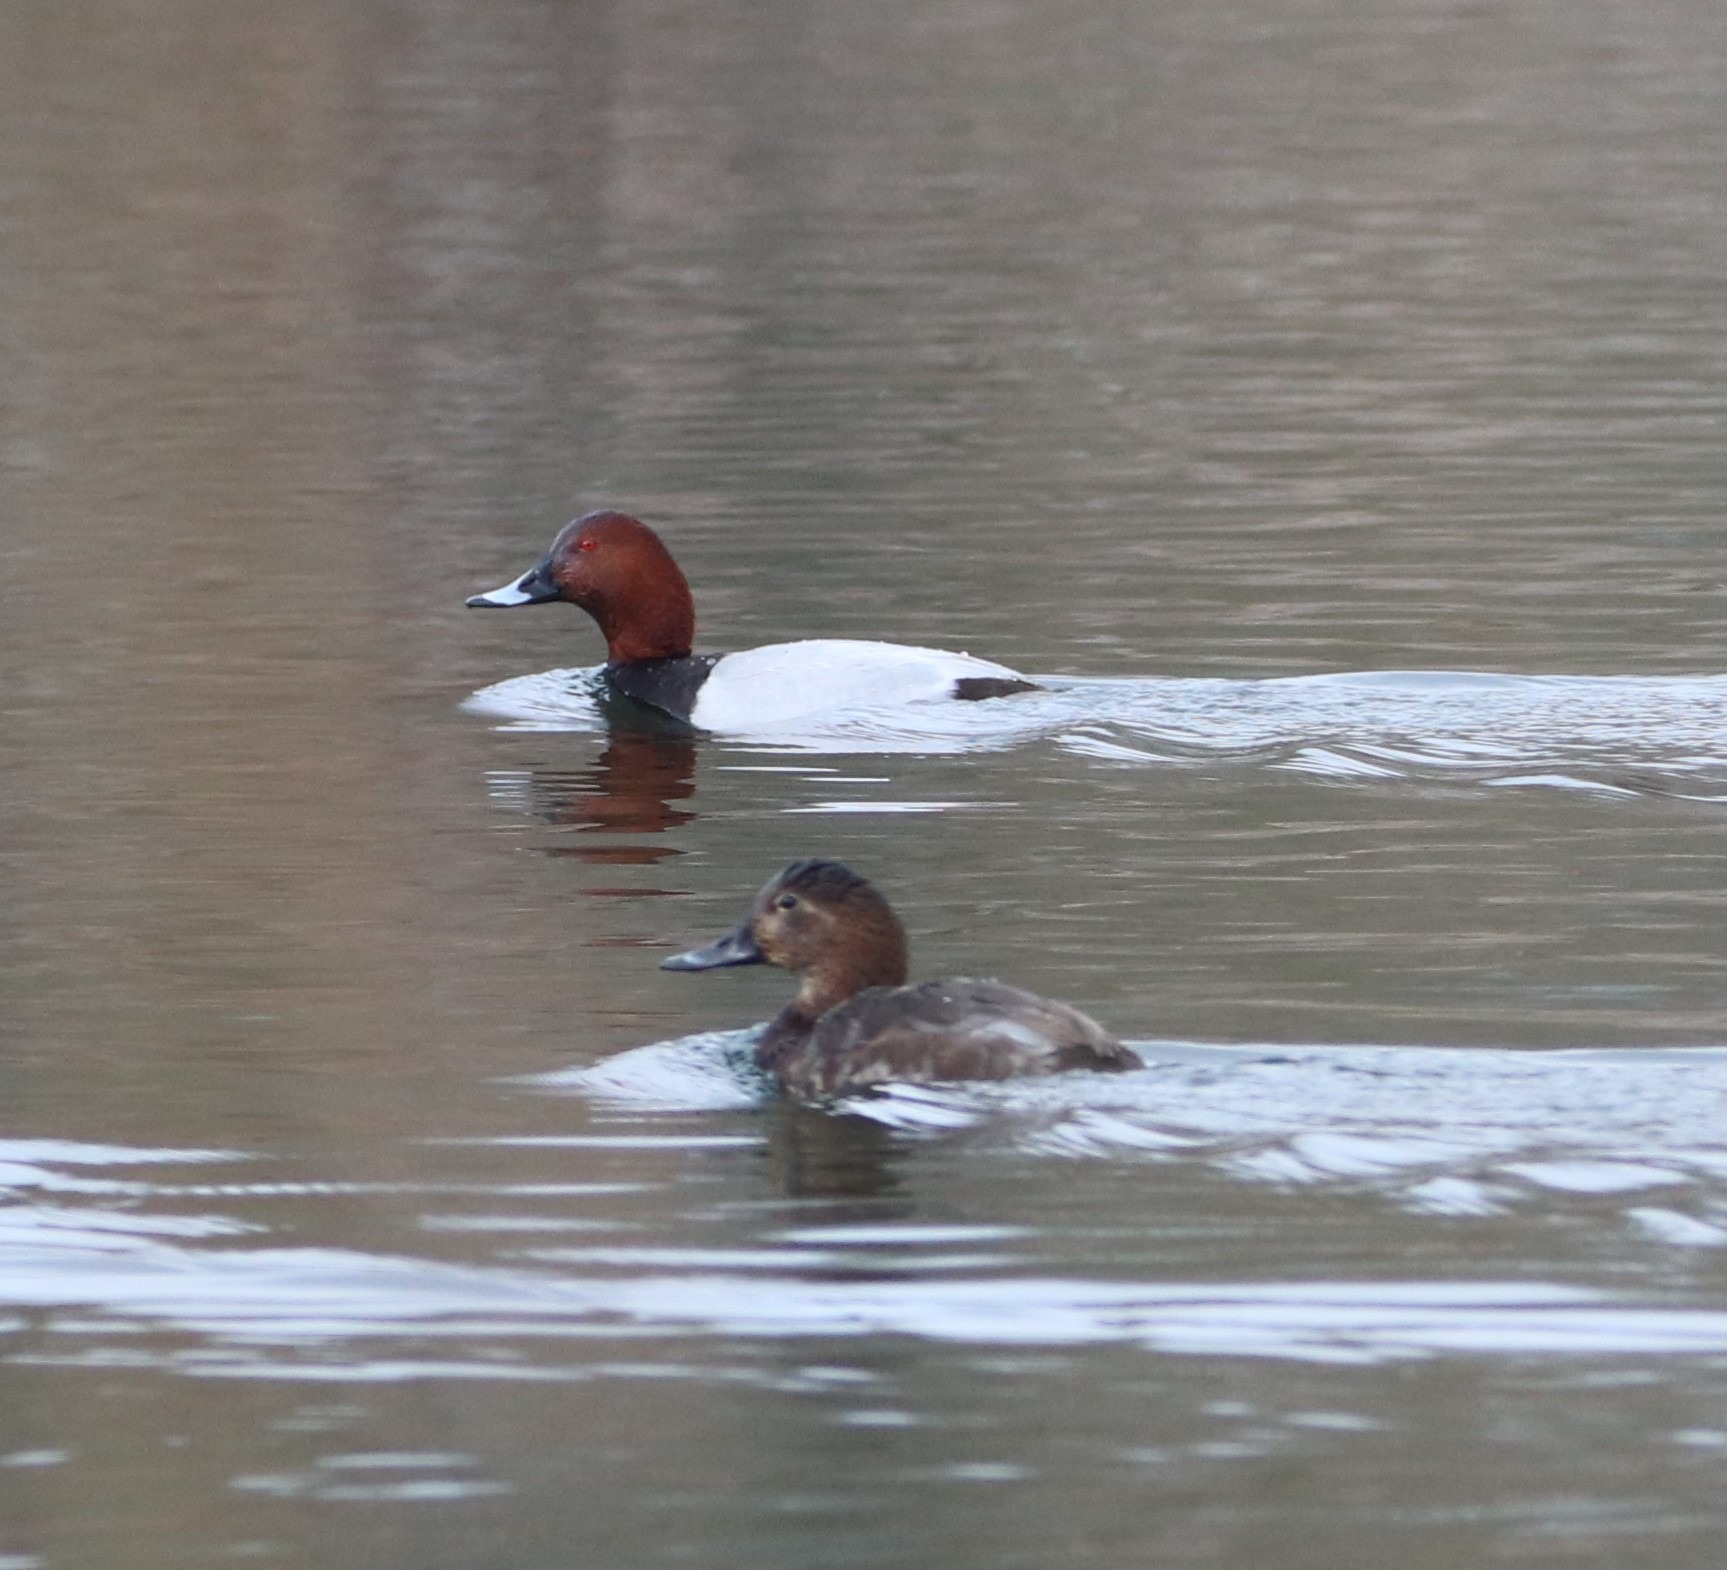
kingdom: Animalia
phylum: Chordata
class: Aves
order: Anseriformes
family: Anatidae
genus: Aythya
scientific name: Aythya ferina
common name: Taffeland
